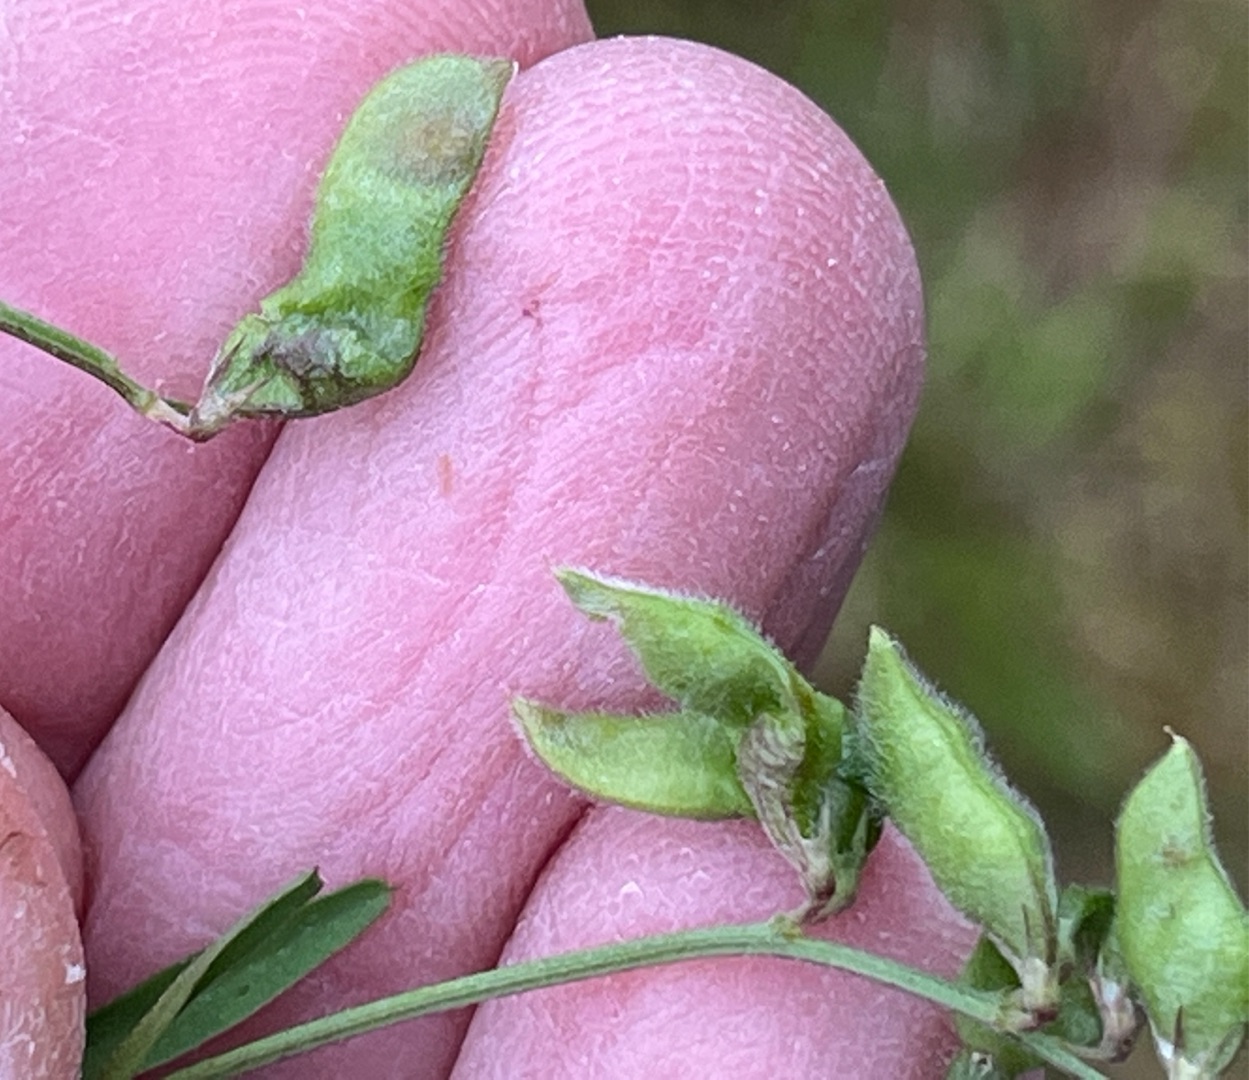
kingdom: Animalia
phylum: Arthropoda
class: Insecta
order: Diptera
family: Cecidomyiidae
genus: Asphondylia
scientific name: Asphondylia ervi
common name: Taddervikkegalmyg
